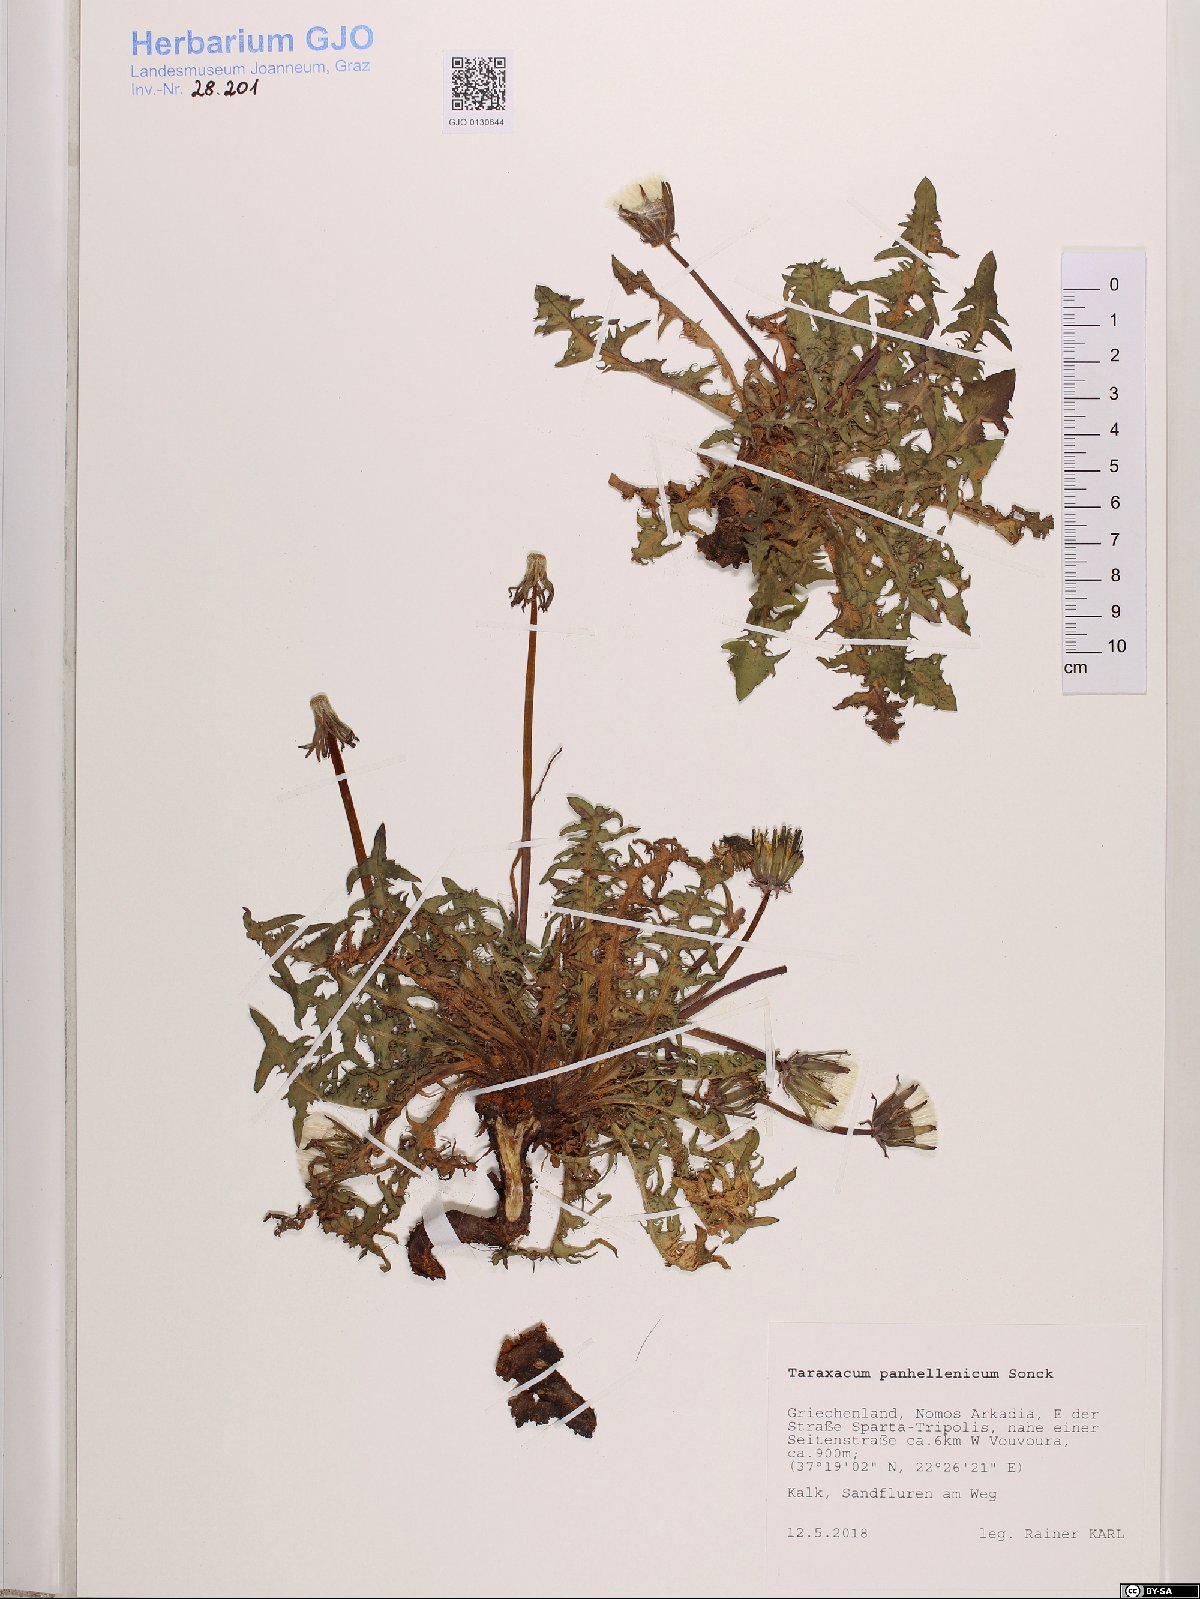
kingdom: Plantae
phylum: Tracheophyta
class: Magnoliopsida
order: Asterales
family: Asteraceae
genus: Taraxacum
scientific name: Taraxacum panhellenicum
